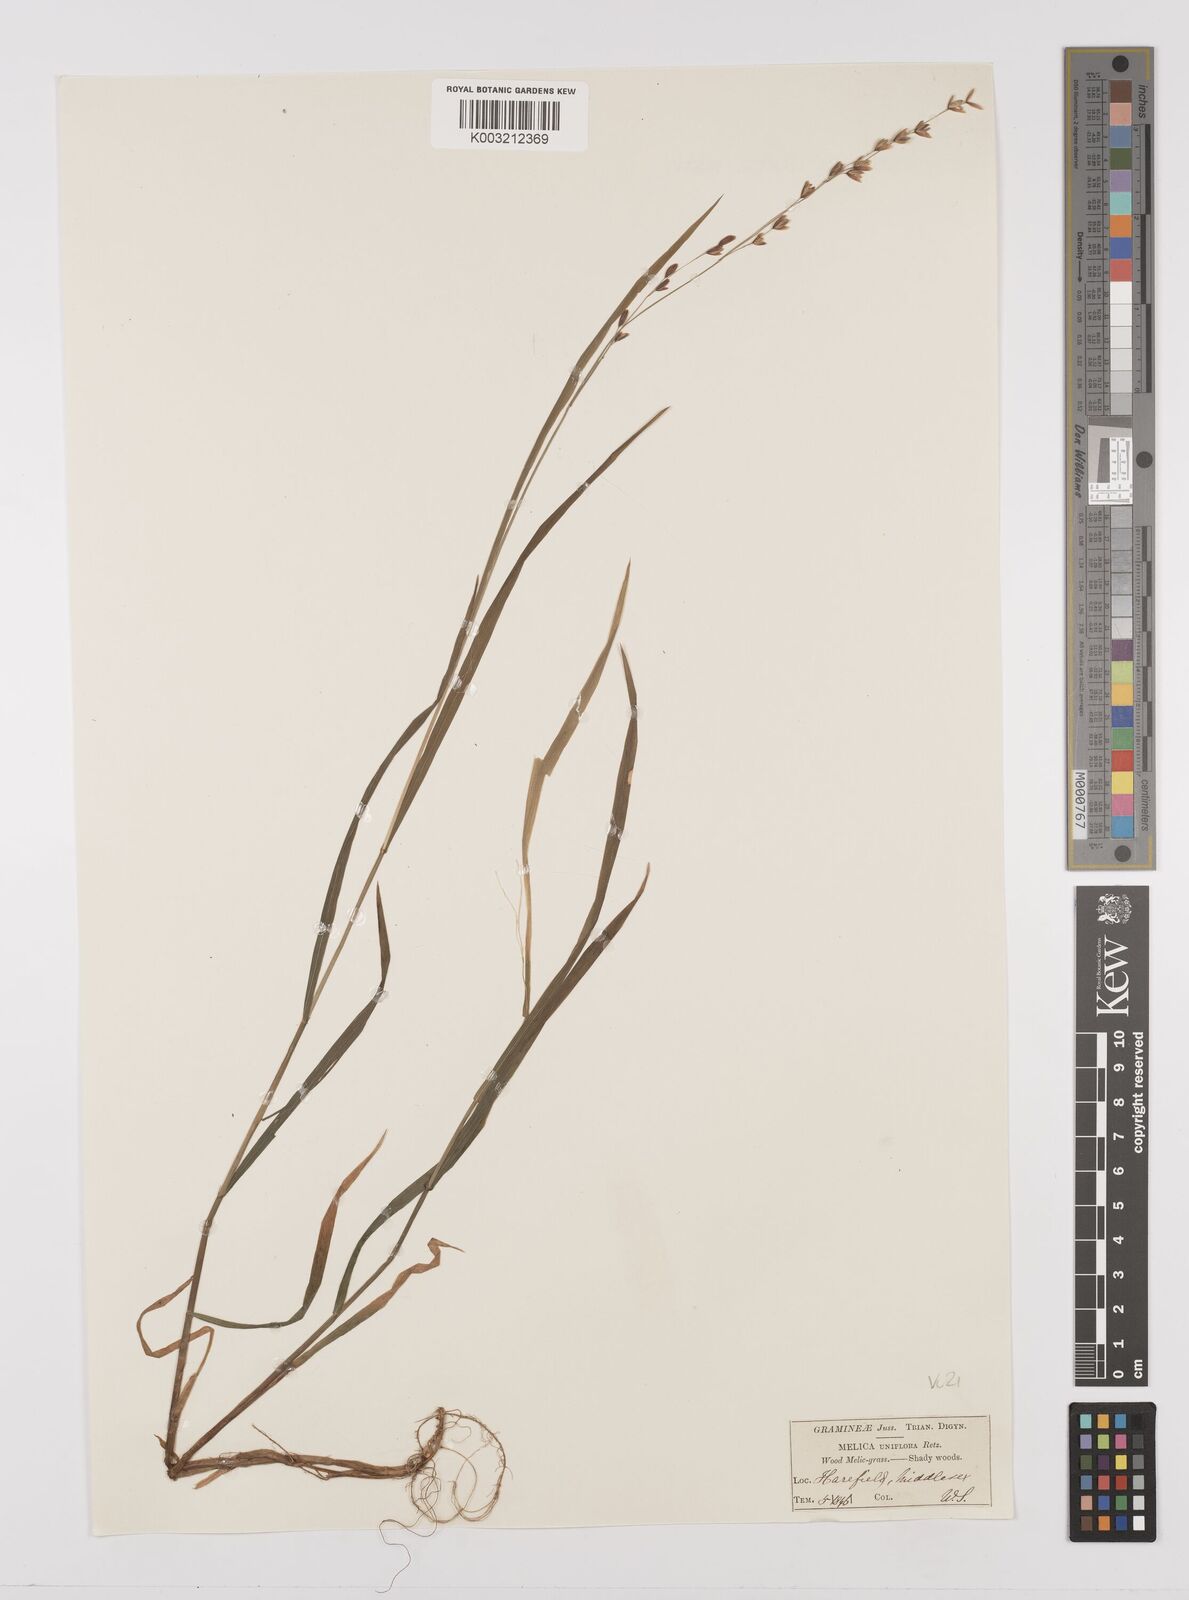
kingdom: Plantae
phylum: Tracheophyta
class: Liliopsida
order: Poales
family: Poaceae
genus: Melica
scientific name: Melica uniflora
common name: Wood melick
